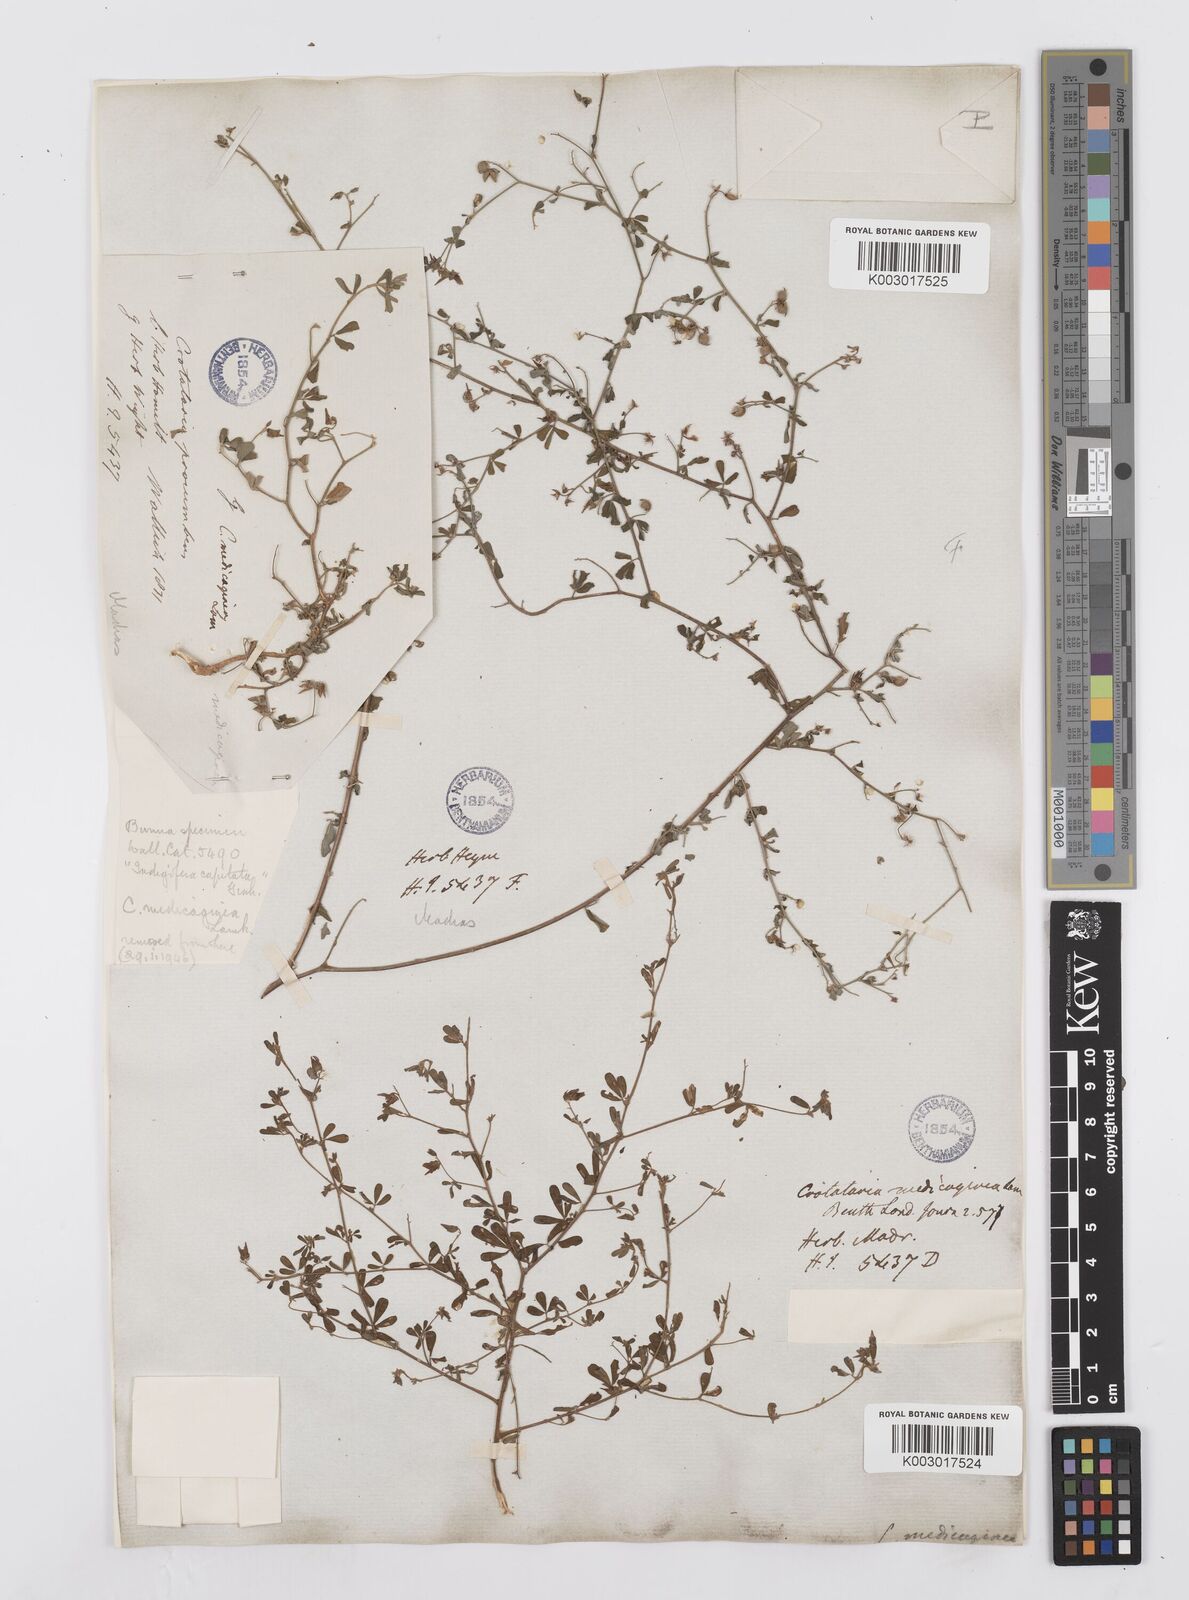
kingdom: Plantae
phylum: Tracheophyta
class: Magnoliopsida
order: Fabales
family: Fabaceae
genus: Crotalaria
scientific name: Crotalaria medicaginea
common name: Trefoil rattlepod
